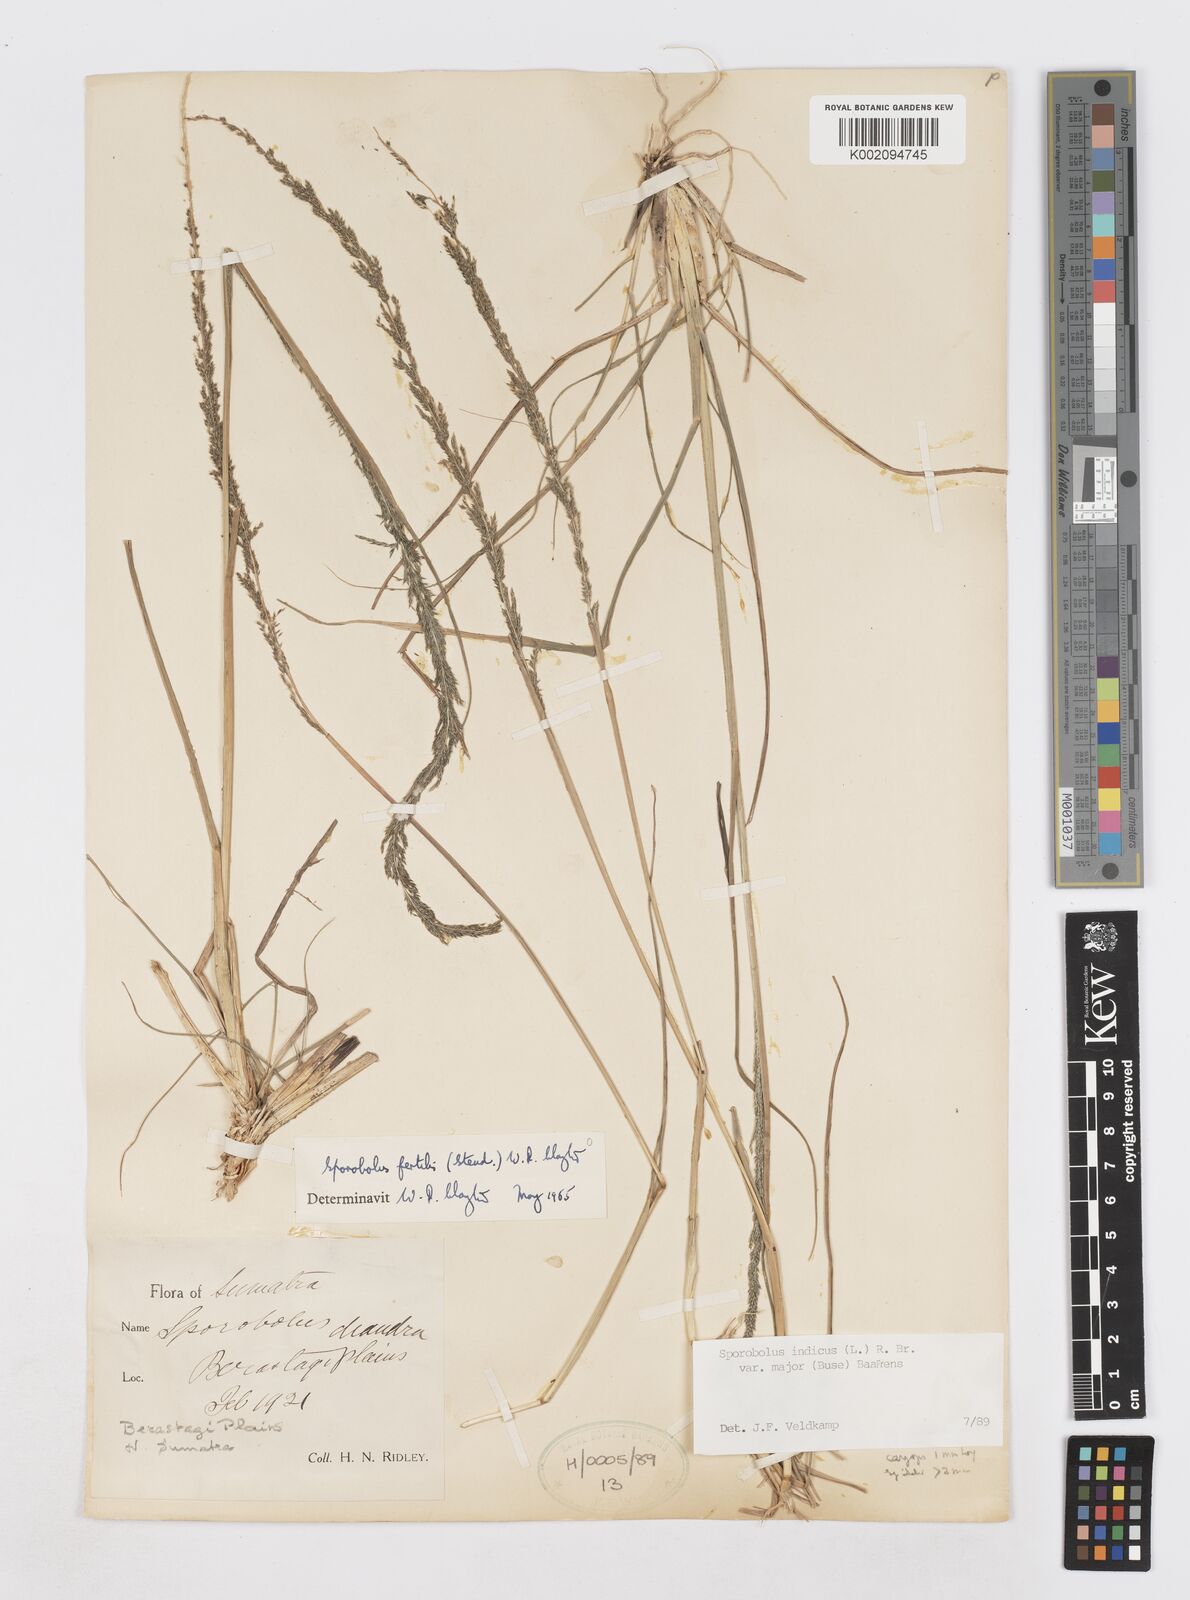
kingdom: Plantae
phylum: Tracheophyta
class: Liliopsida
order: Poales
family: Poaceae
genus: Sporobolus
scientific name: Sporobolus fertilis
